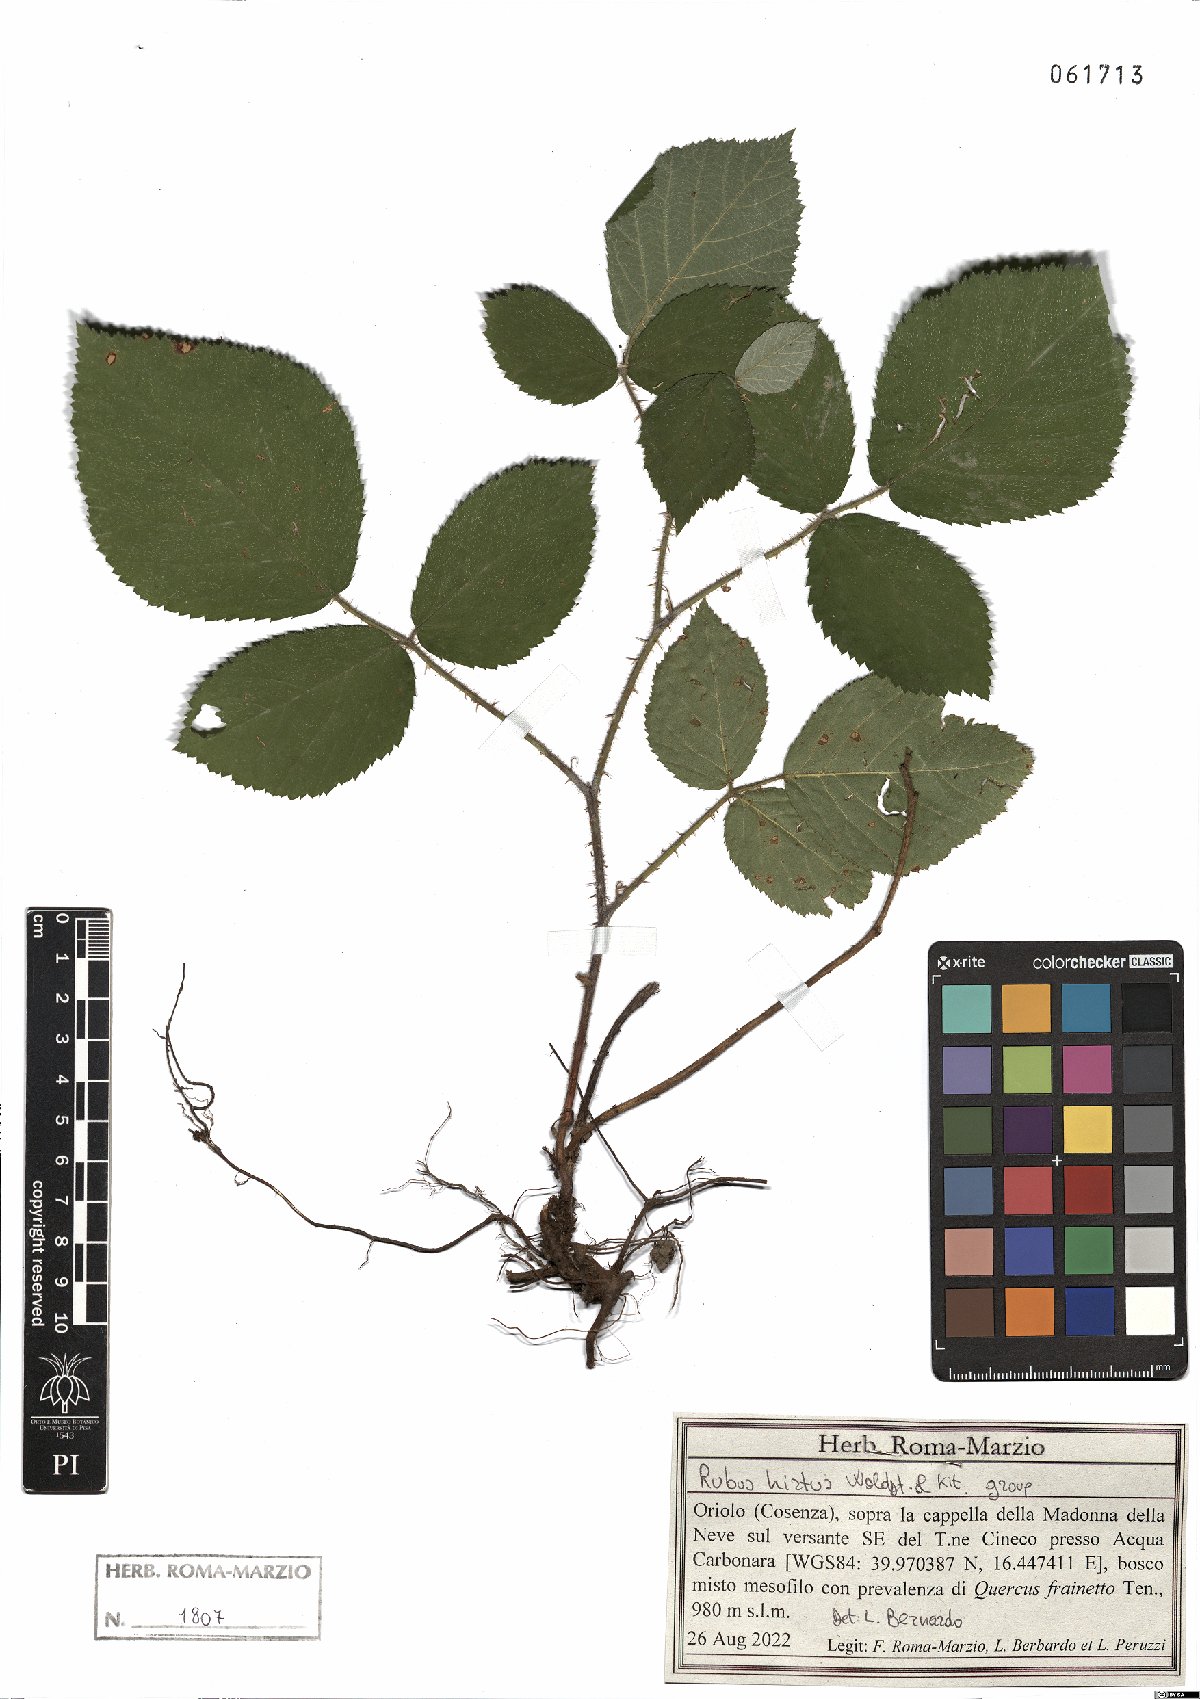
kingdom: Plantae
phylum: Tracheophyta
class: Magnoliopsida
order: Rosales
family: Rosaceae
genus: Rubus
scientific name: Rubus hirtus
